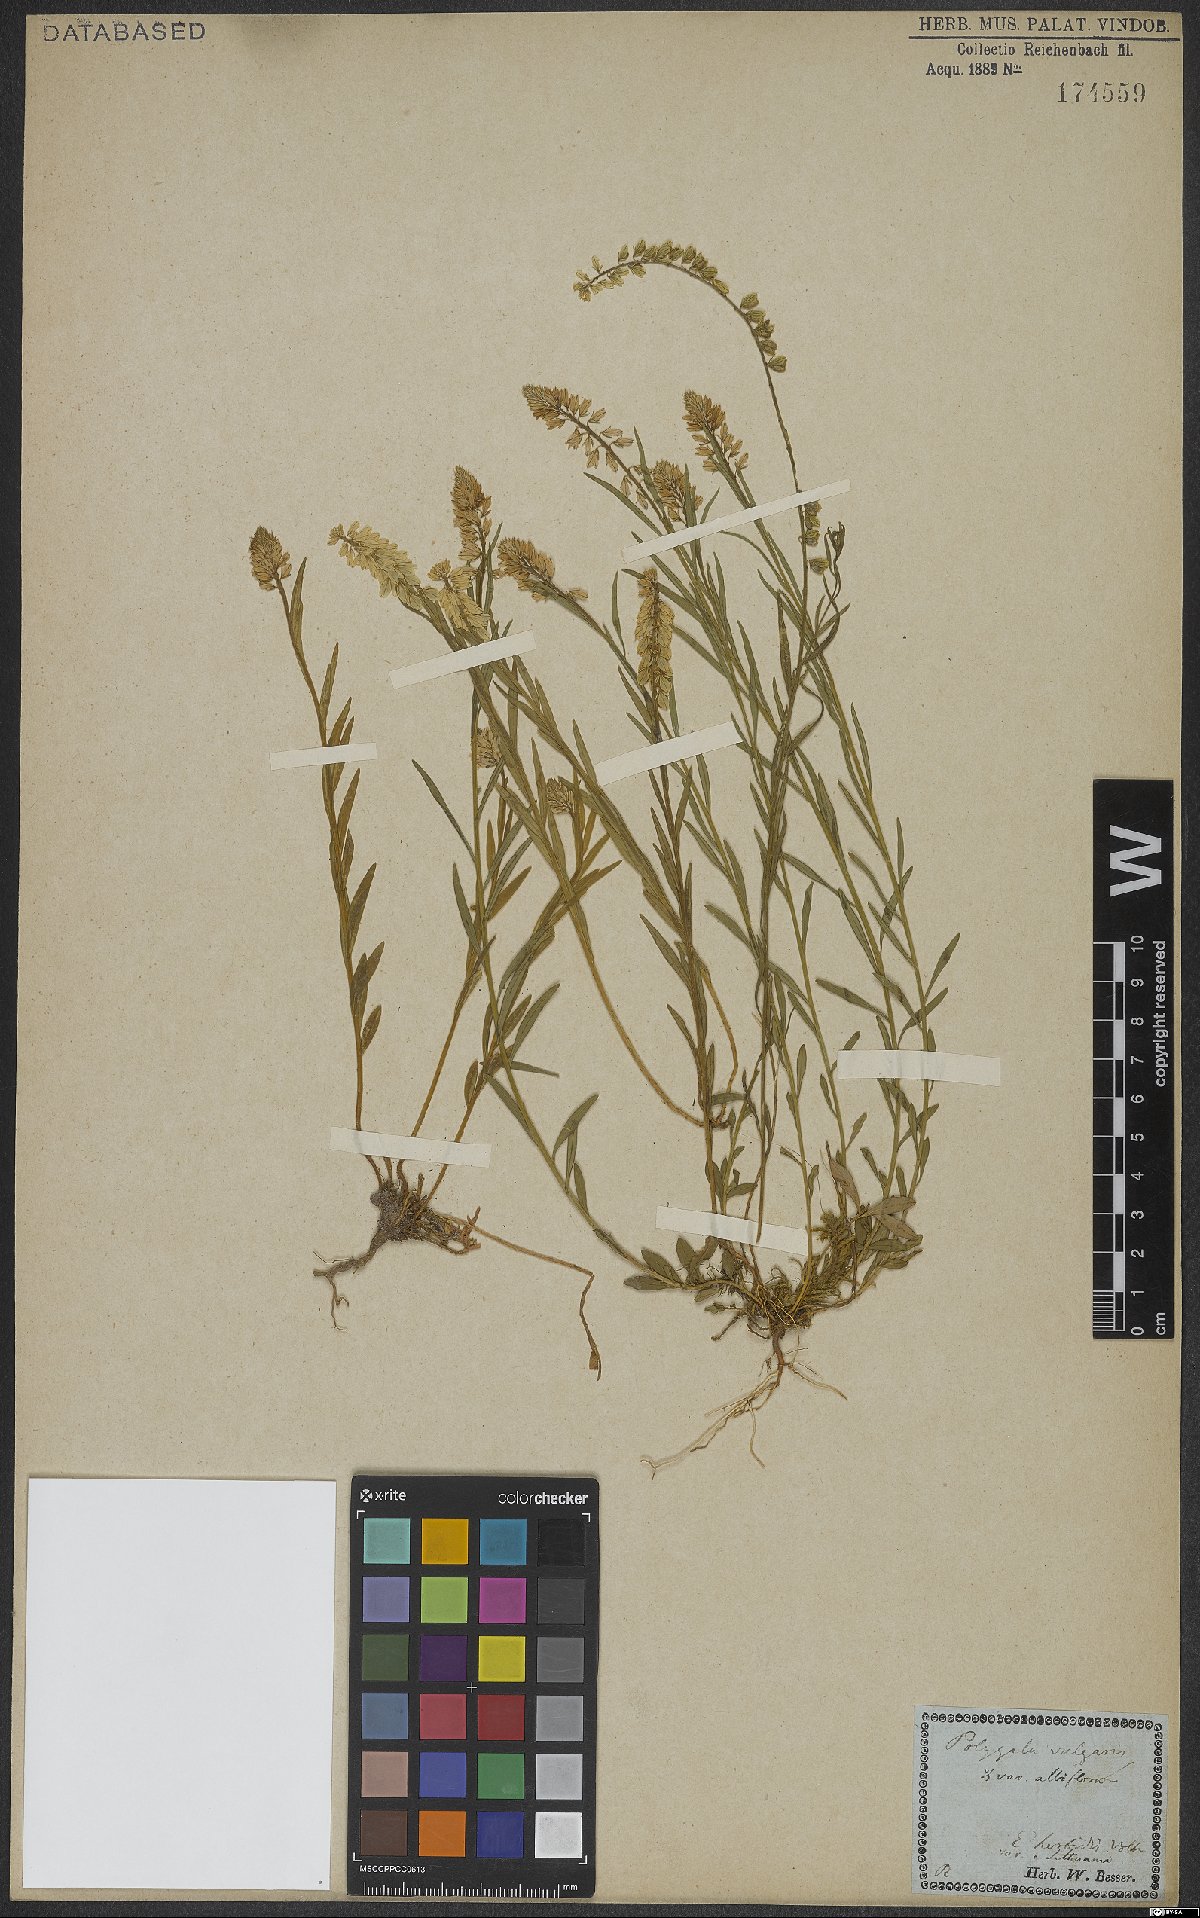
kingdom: Plantae
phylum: Tracheophyta
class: Magnoliopsida
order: Fabales
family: Polygalaceae
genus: Polygala
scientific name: Polygala vulgaris
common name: Common milkwort
